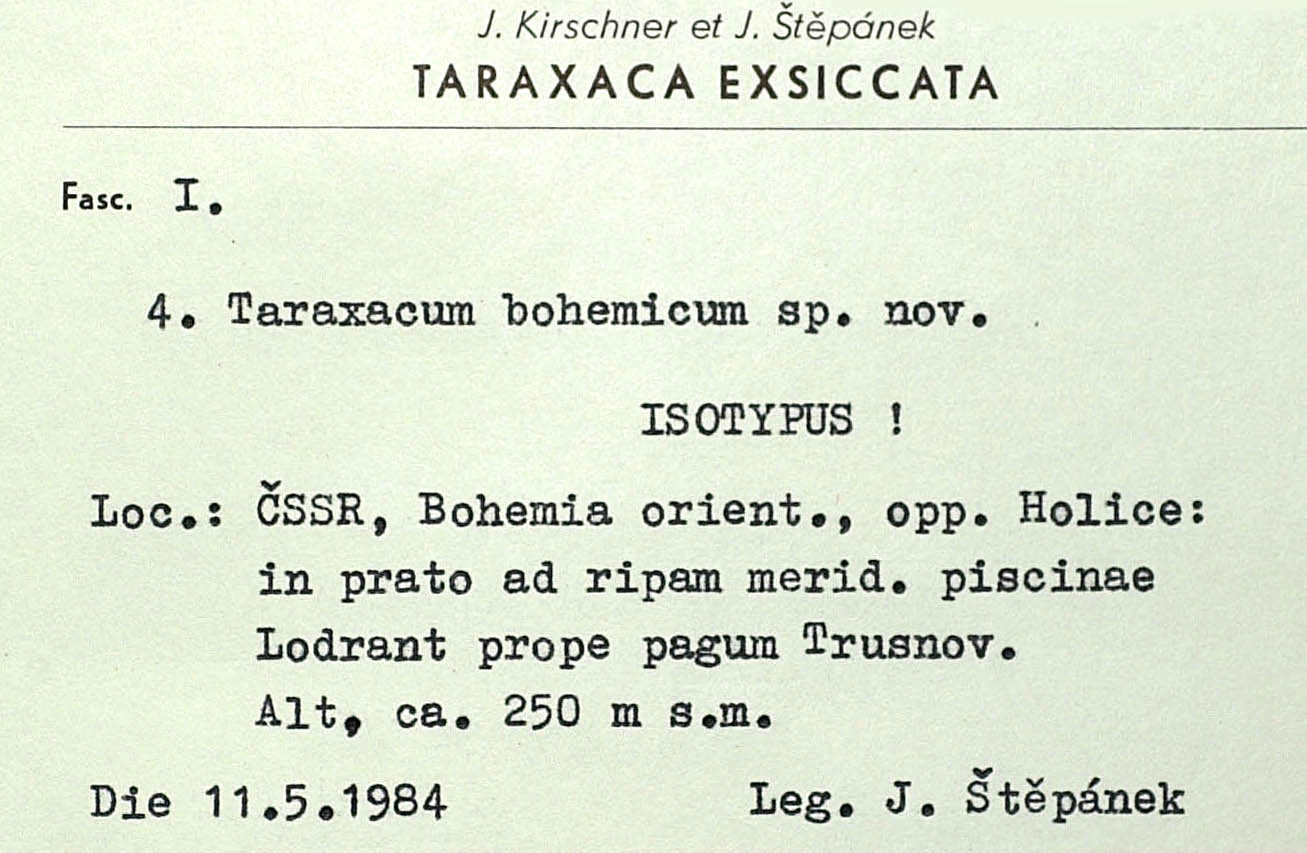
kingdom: Plantae
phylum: Tracheophyta
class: Magnoliopsida
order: Asterales
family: Asteraceae
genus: Taraxacum
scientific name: Taraxacum bohemicum
